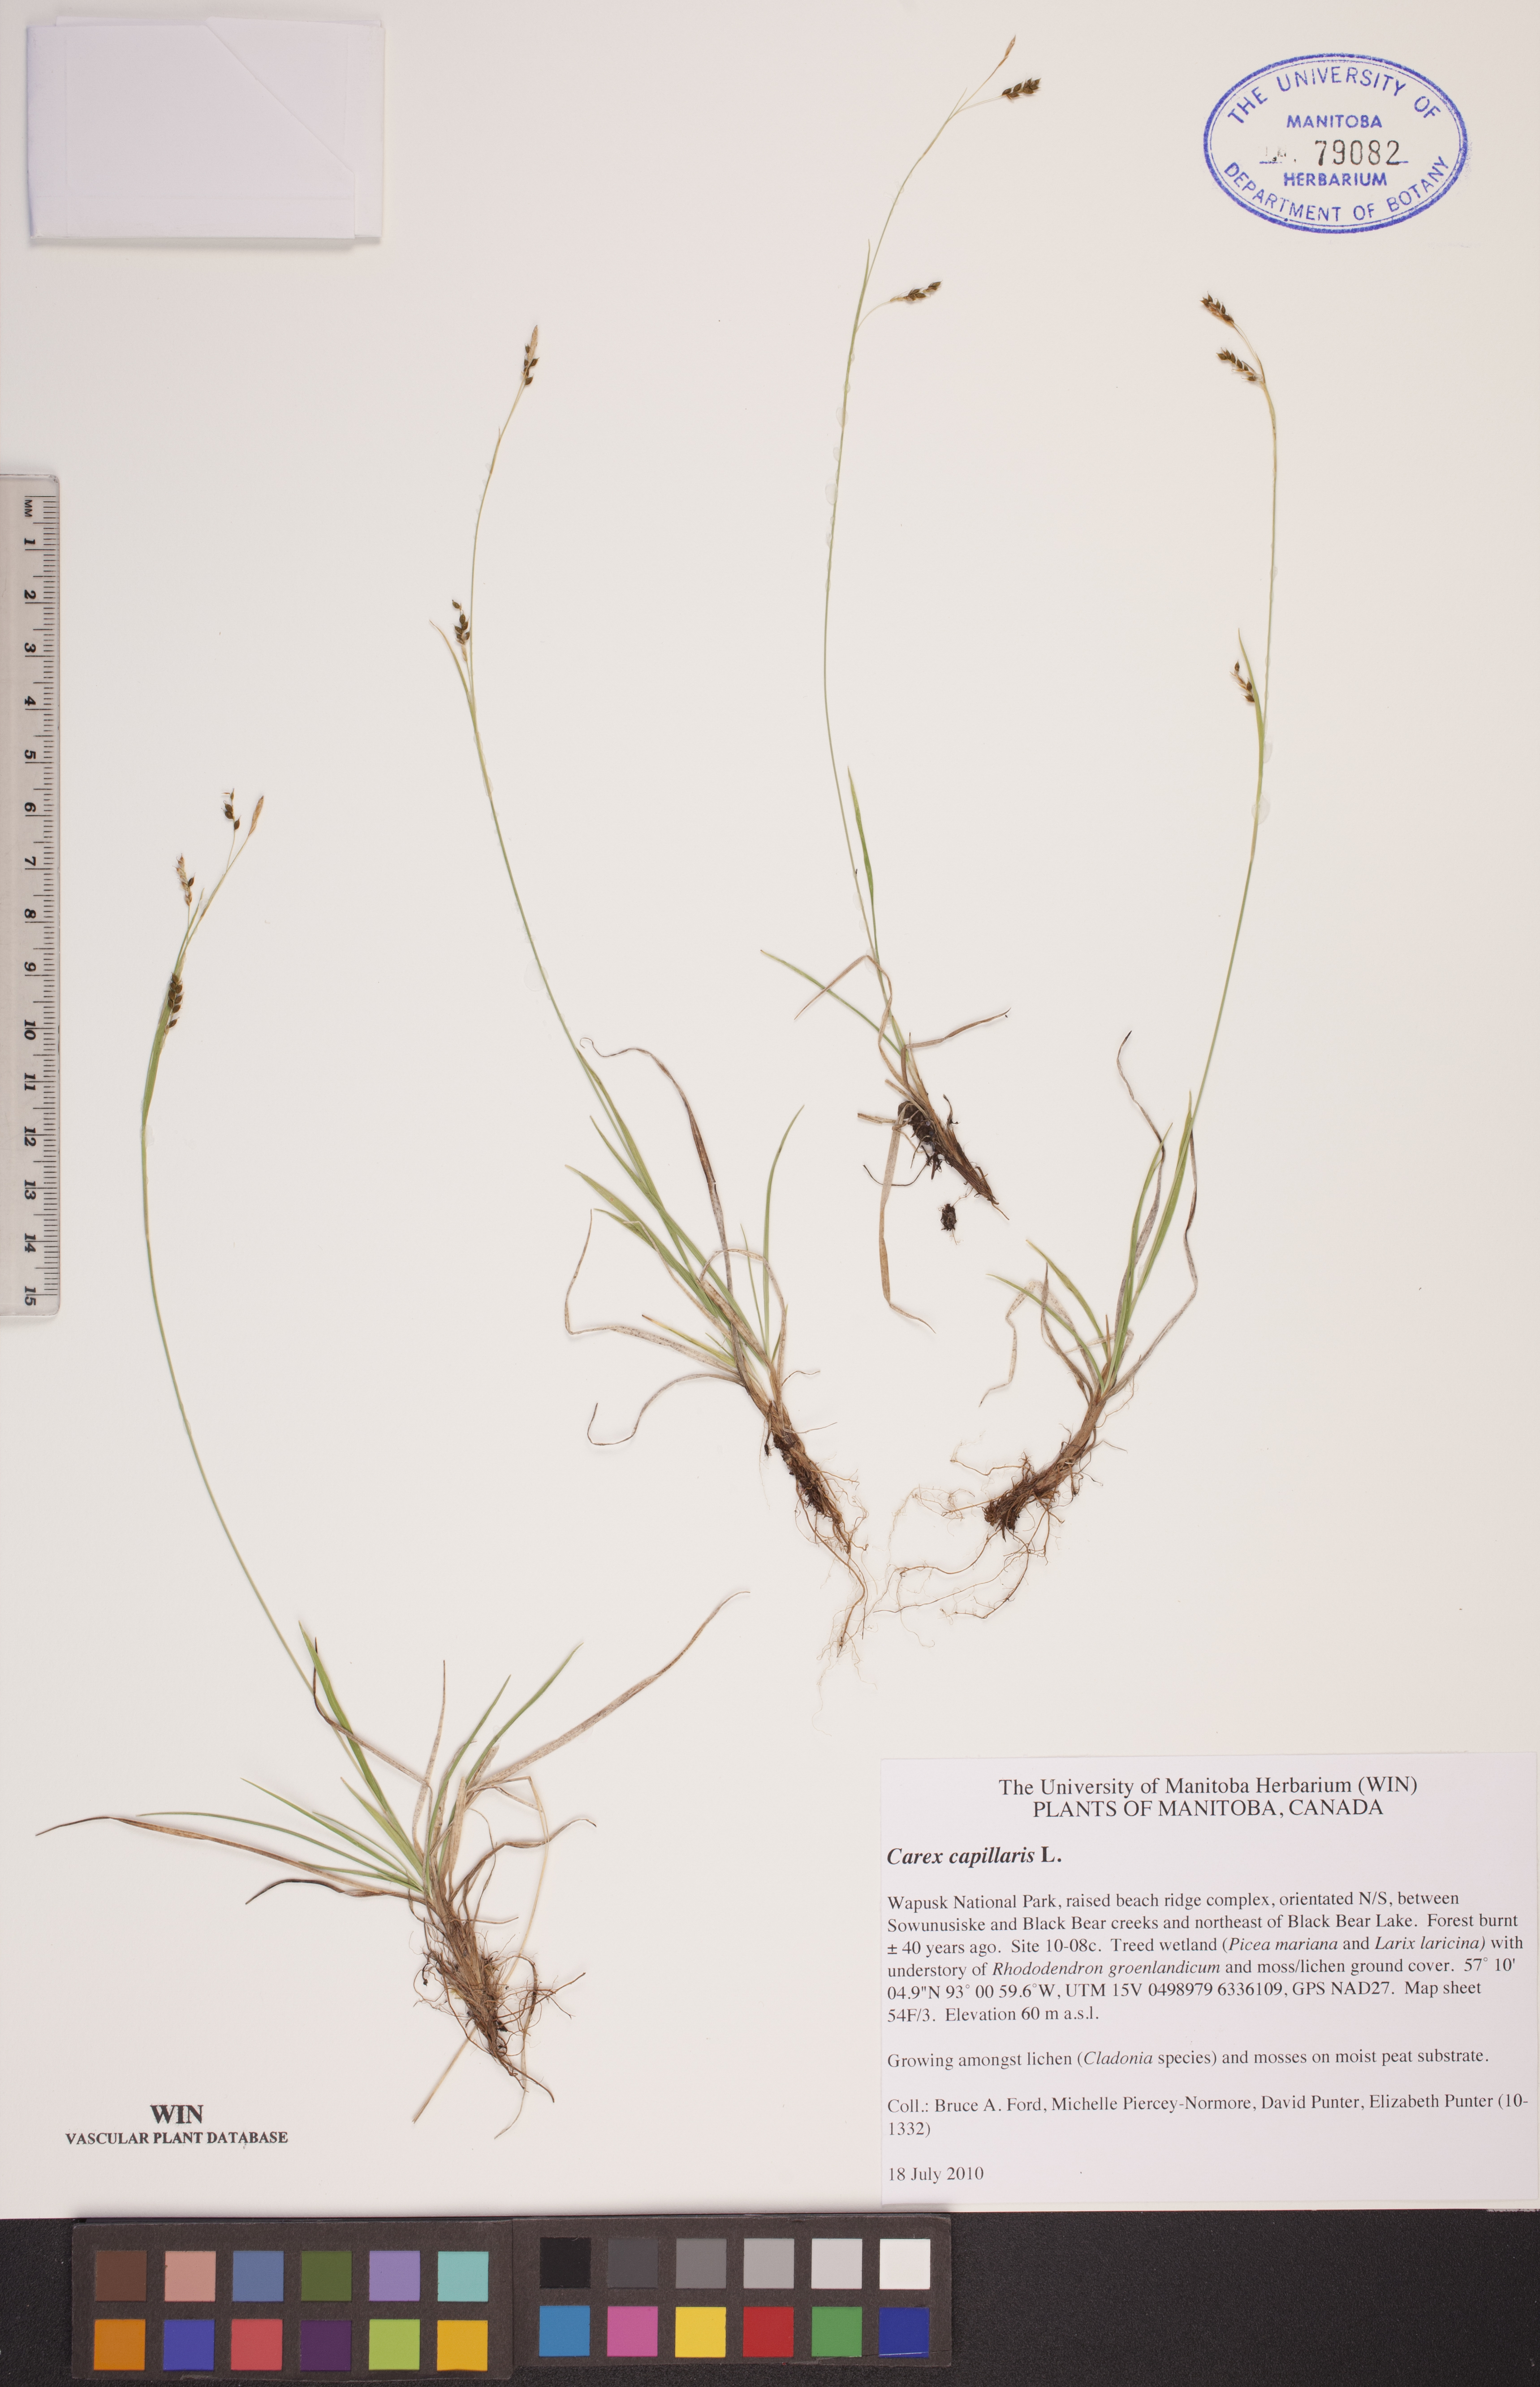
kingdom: Plantae
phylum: Tracheophyta
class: Liliopsida
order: Poales
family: Cyperaceae
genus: Carex
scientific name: Carex capillaris
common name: Hair sedge
